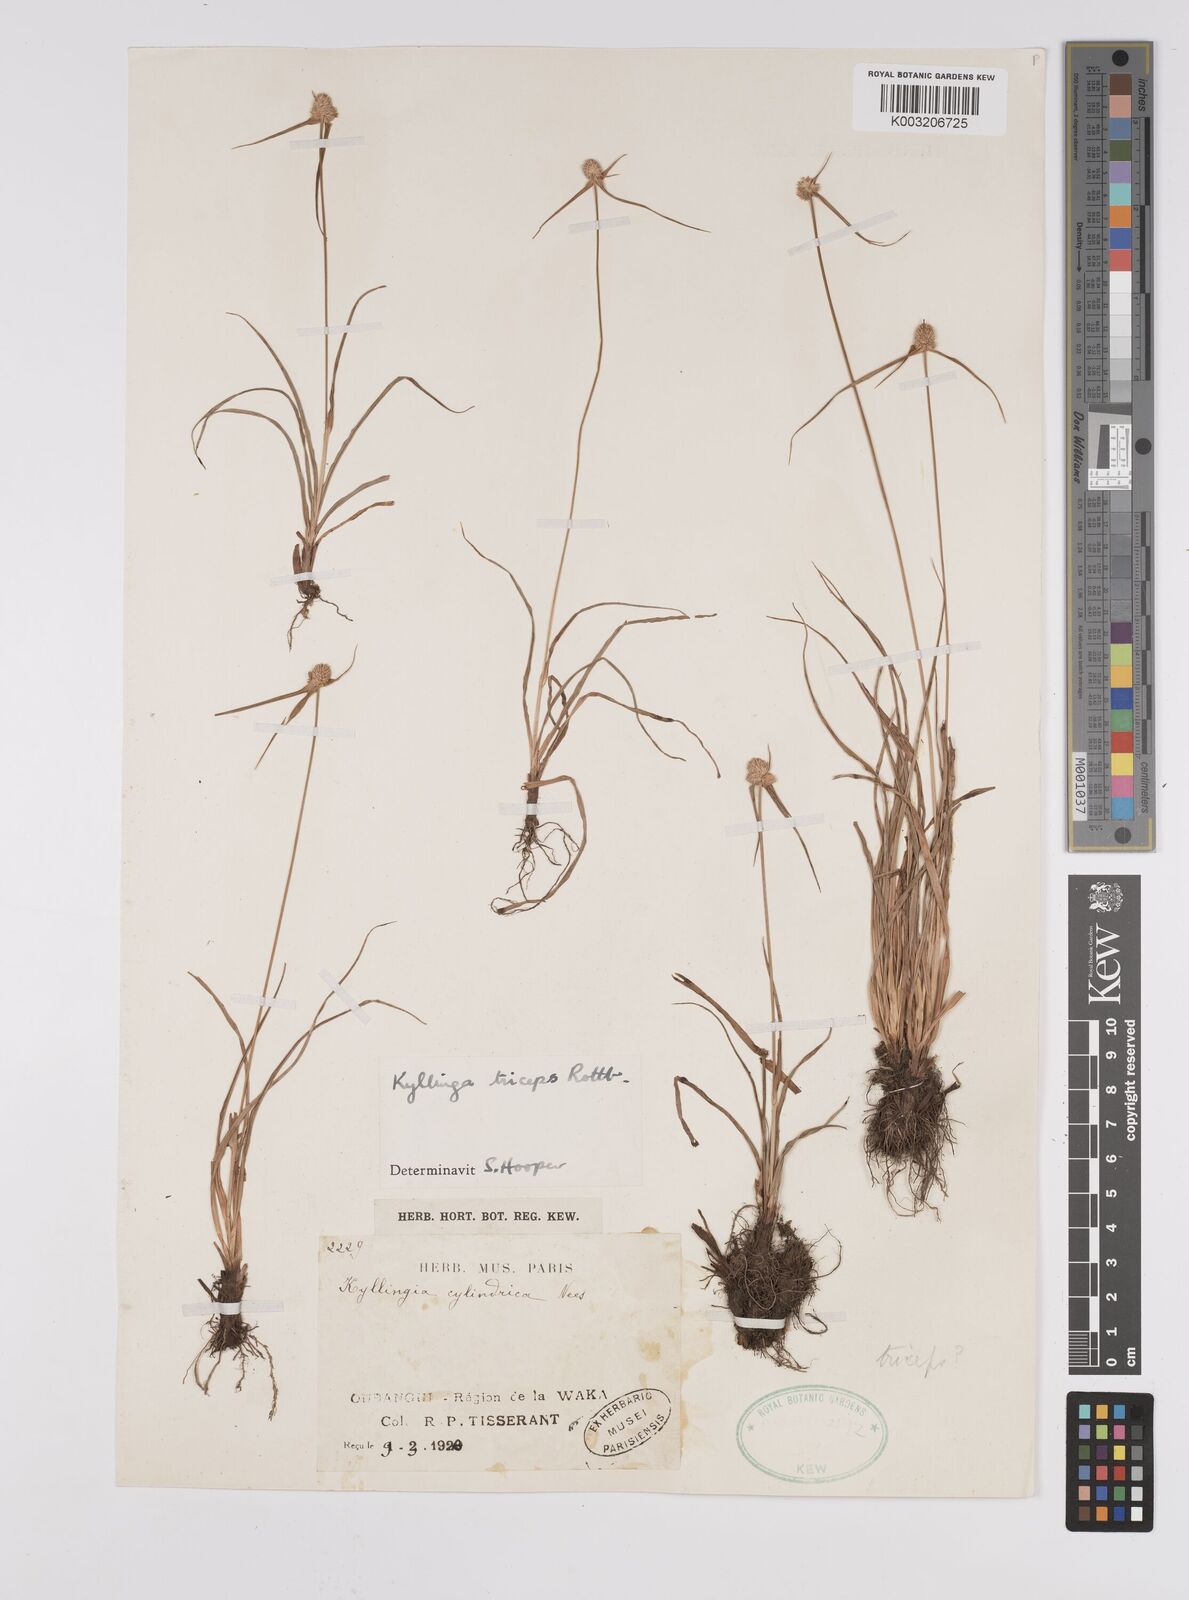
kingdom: Plantae
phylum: Tracheophyta
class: Liliopsida
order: Poales
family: Cyperaceae
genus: Cyperus
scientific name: Cyperus
